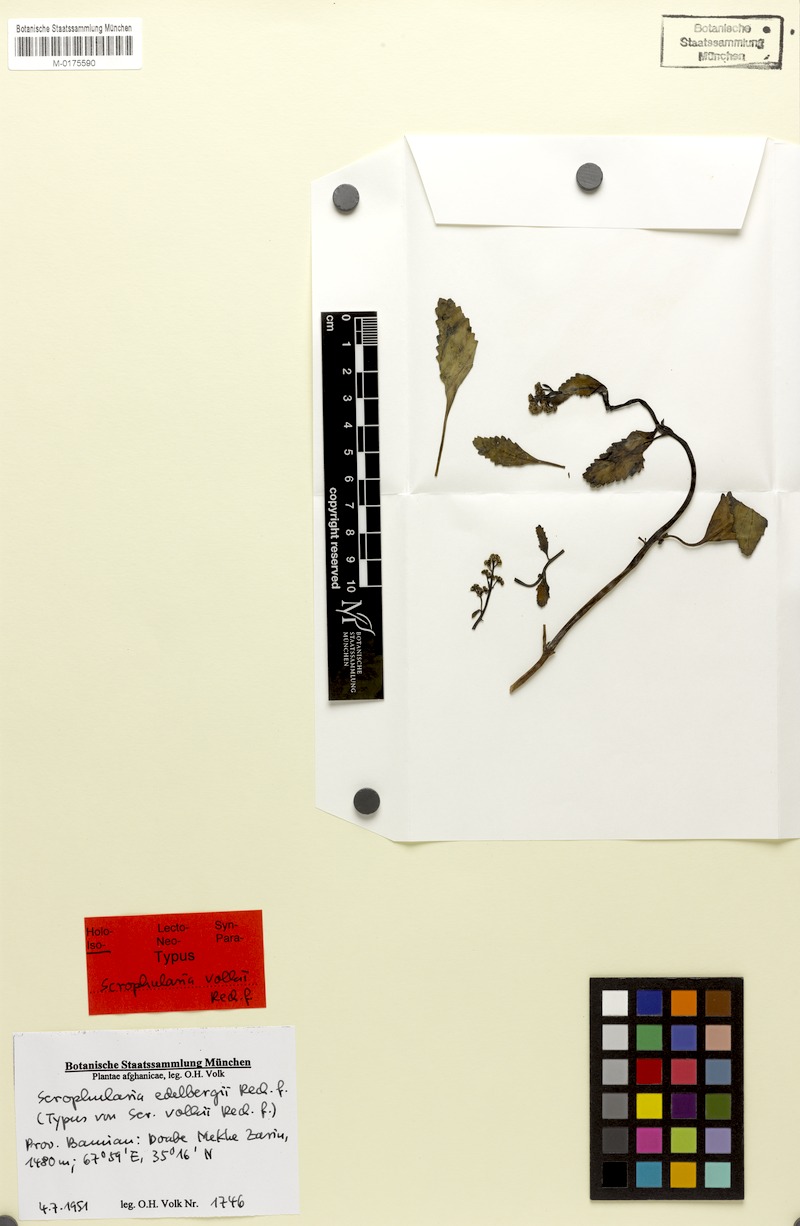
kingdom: Plantae
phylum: Tracheophyta
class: Magnoliopsida
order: Lamiales
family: Scrophulariaceae
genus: Scrophularia
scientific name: Scrophularia edelbergii
